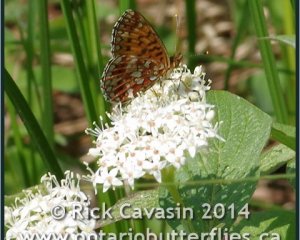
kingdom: Animalia
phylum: Arthropoda
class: Insecta
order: Lepidoptera
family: Nymphalidae
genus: Boloria
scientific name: Boloria selene
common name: Silver-bordered Fritillary
